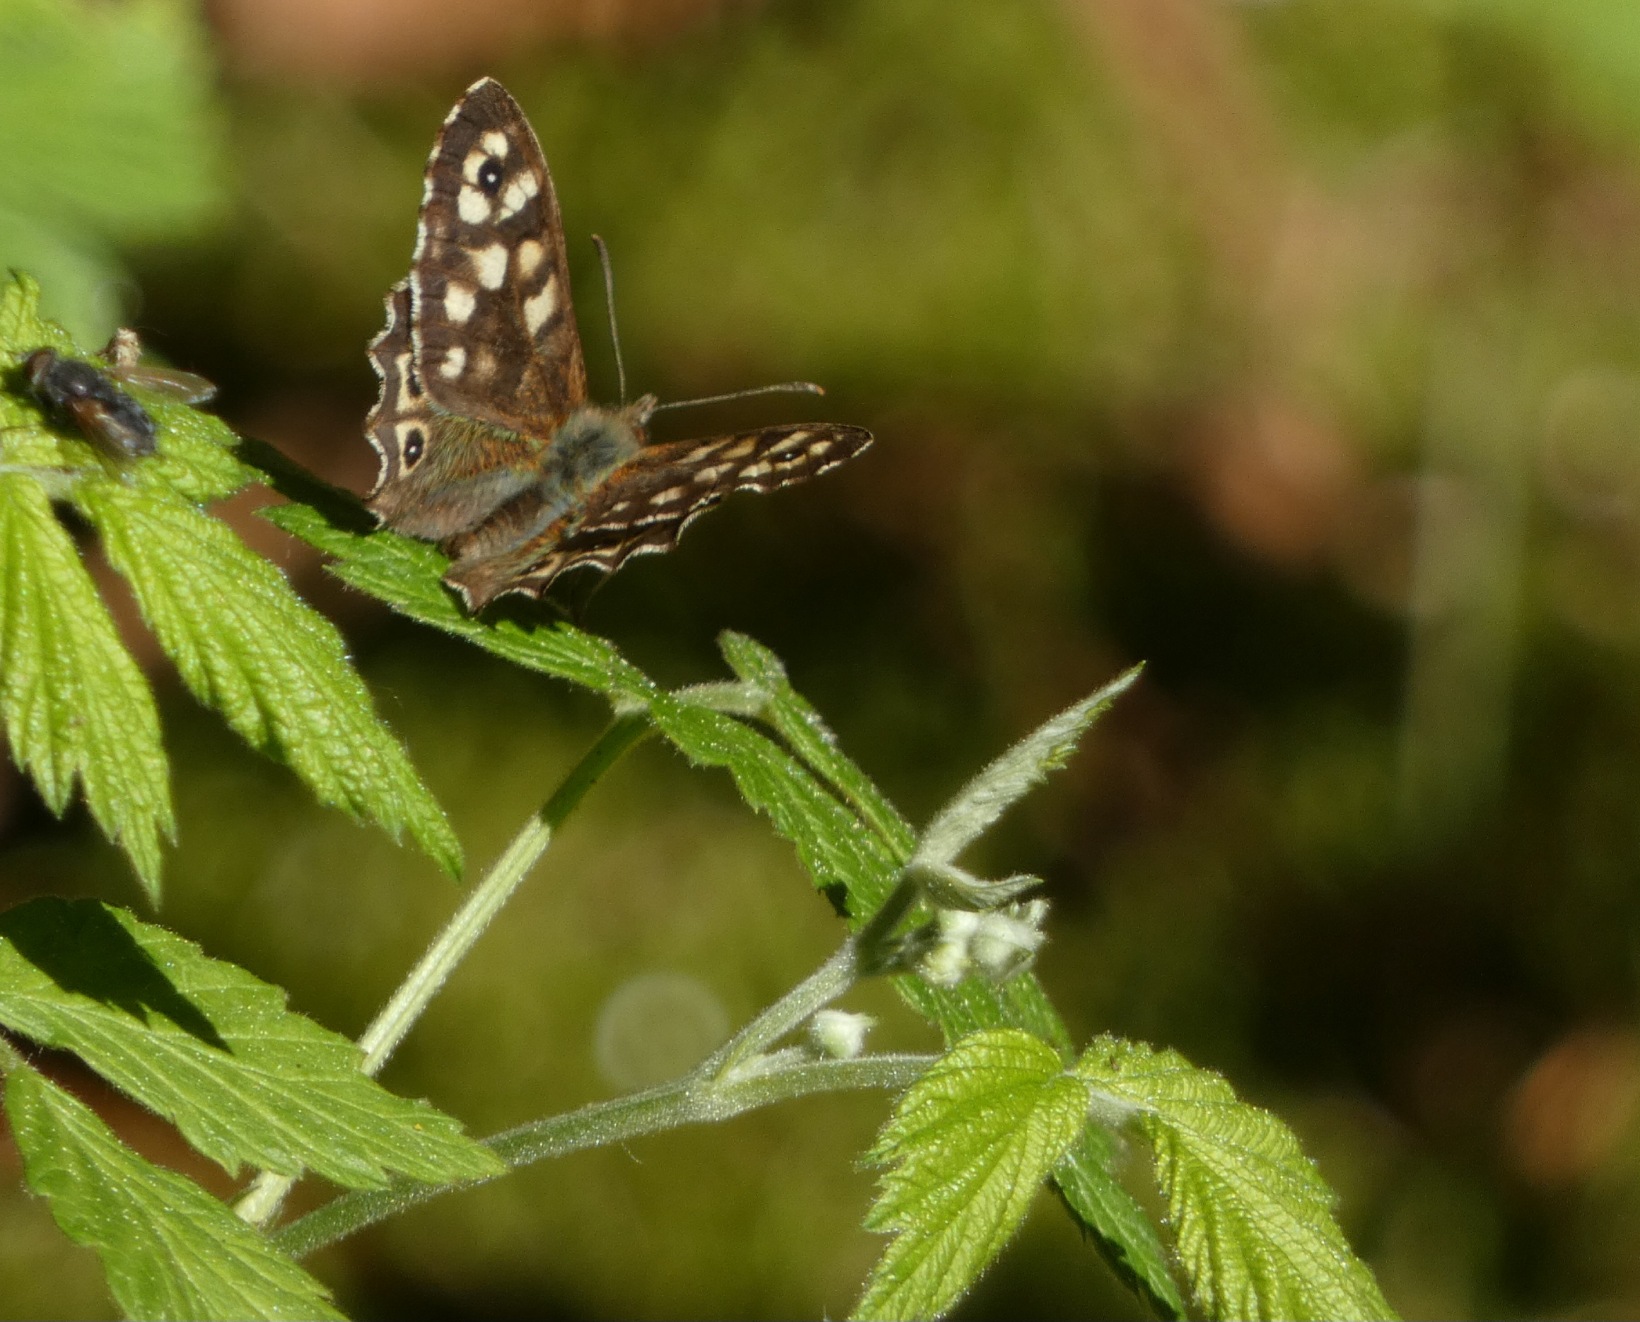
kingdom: Animalia
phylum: Arthropoda
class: Insecta
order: Lepidoptera
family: Nymphalidae
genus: Pararge
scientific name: Pararge aegeria
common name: Skovrandøje
